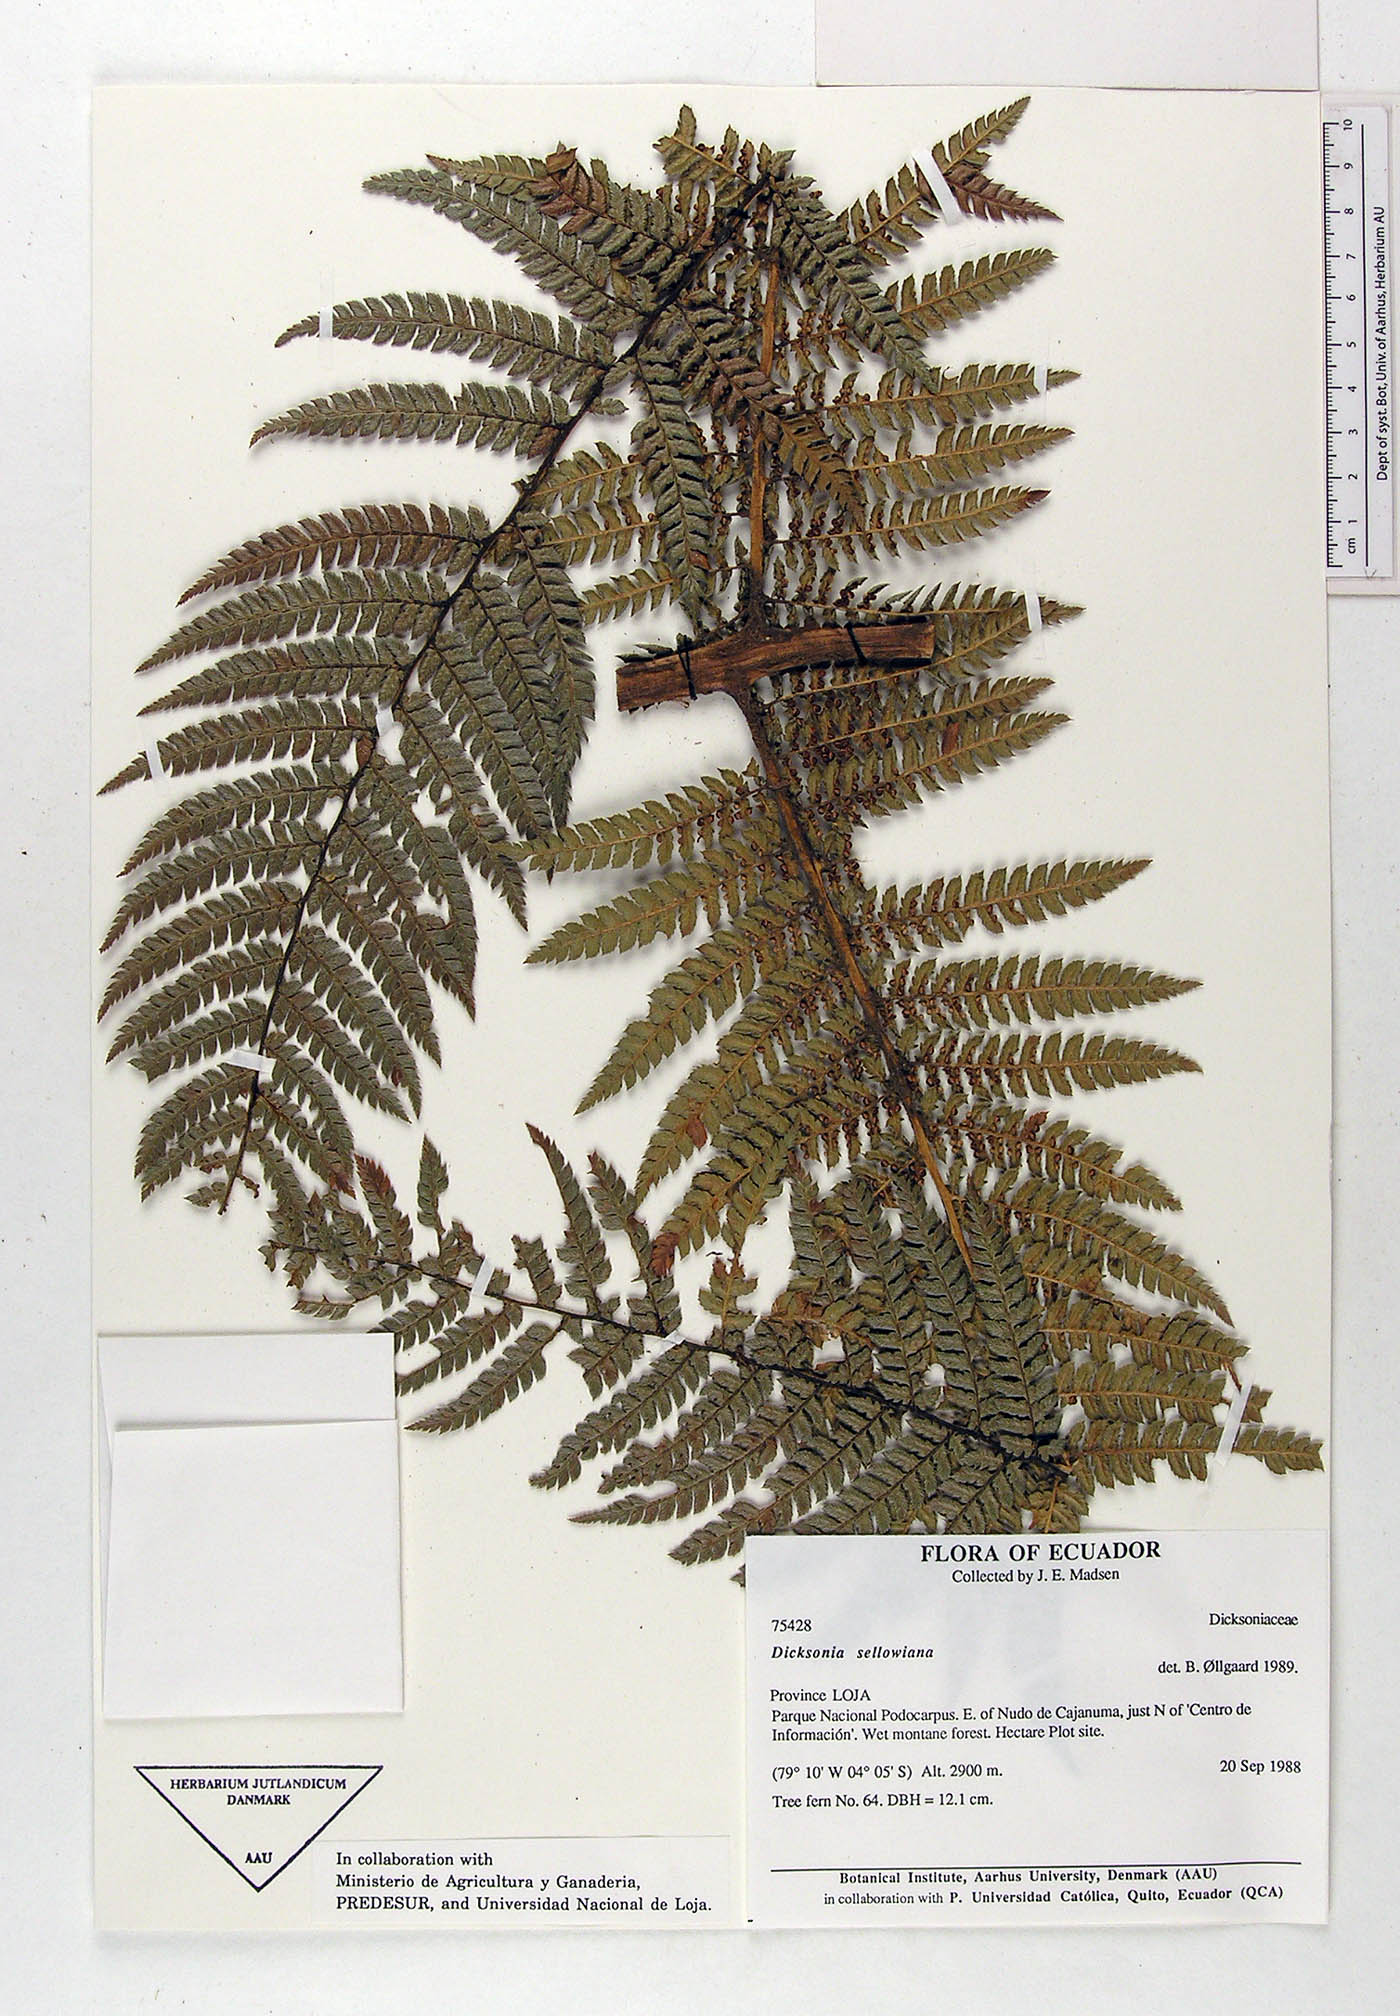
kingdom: Plantae
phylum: Tracheophyta
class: Polypodiopsida
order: Cyatheales
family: Dicksoniaceae
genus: Dicksonia
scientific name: Dicksonia sellowiana
